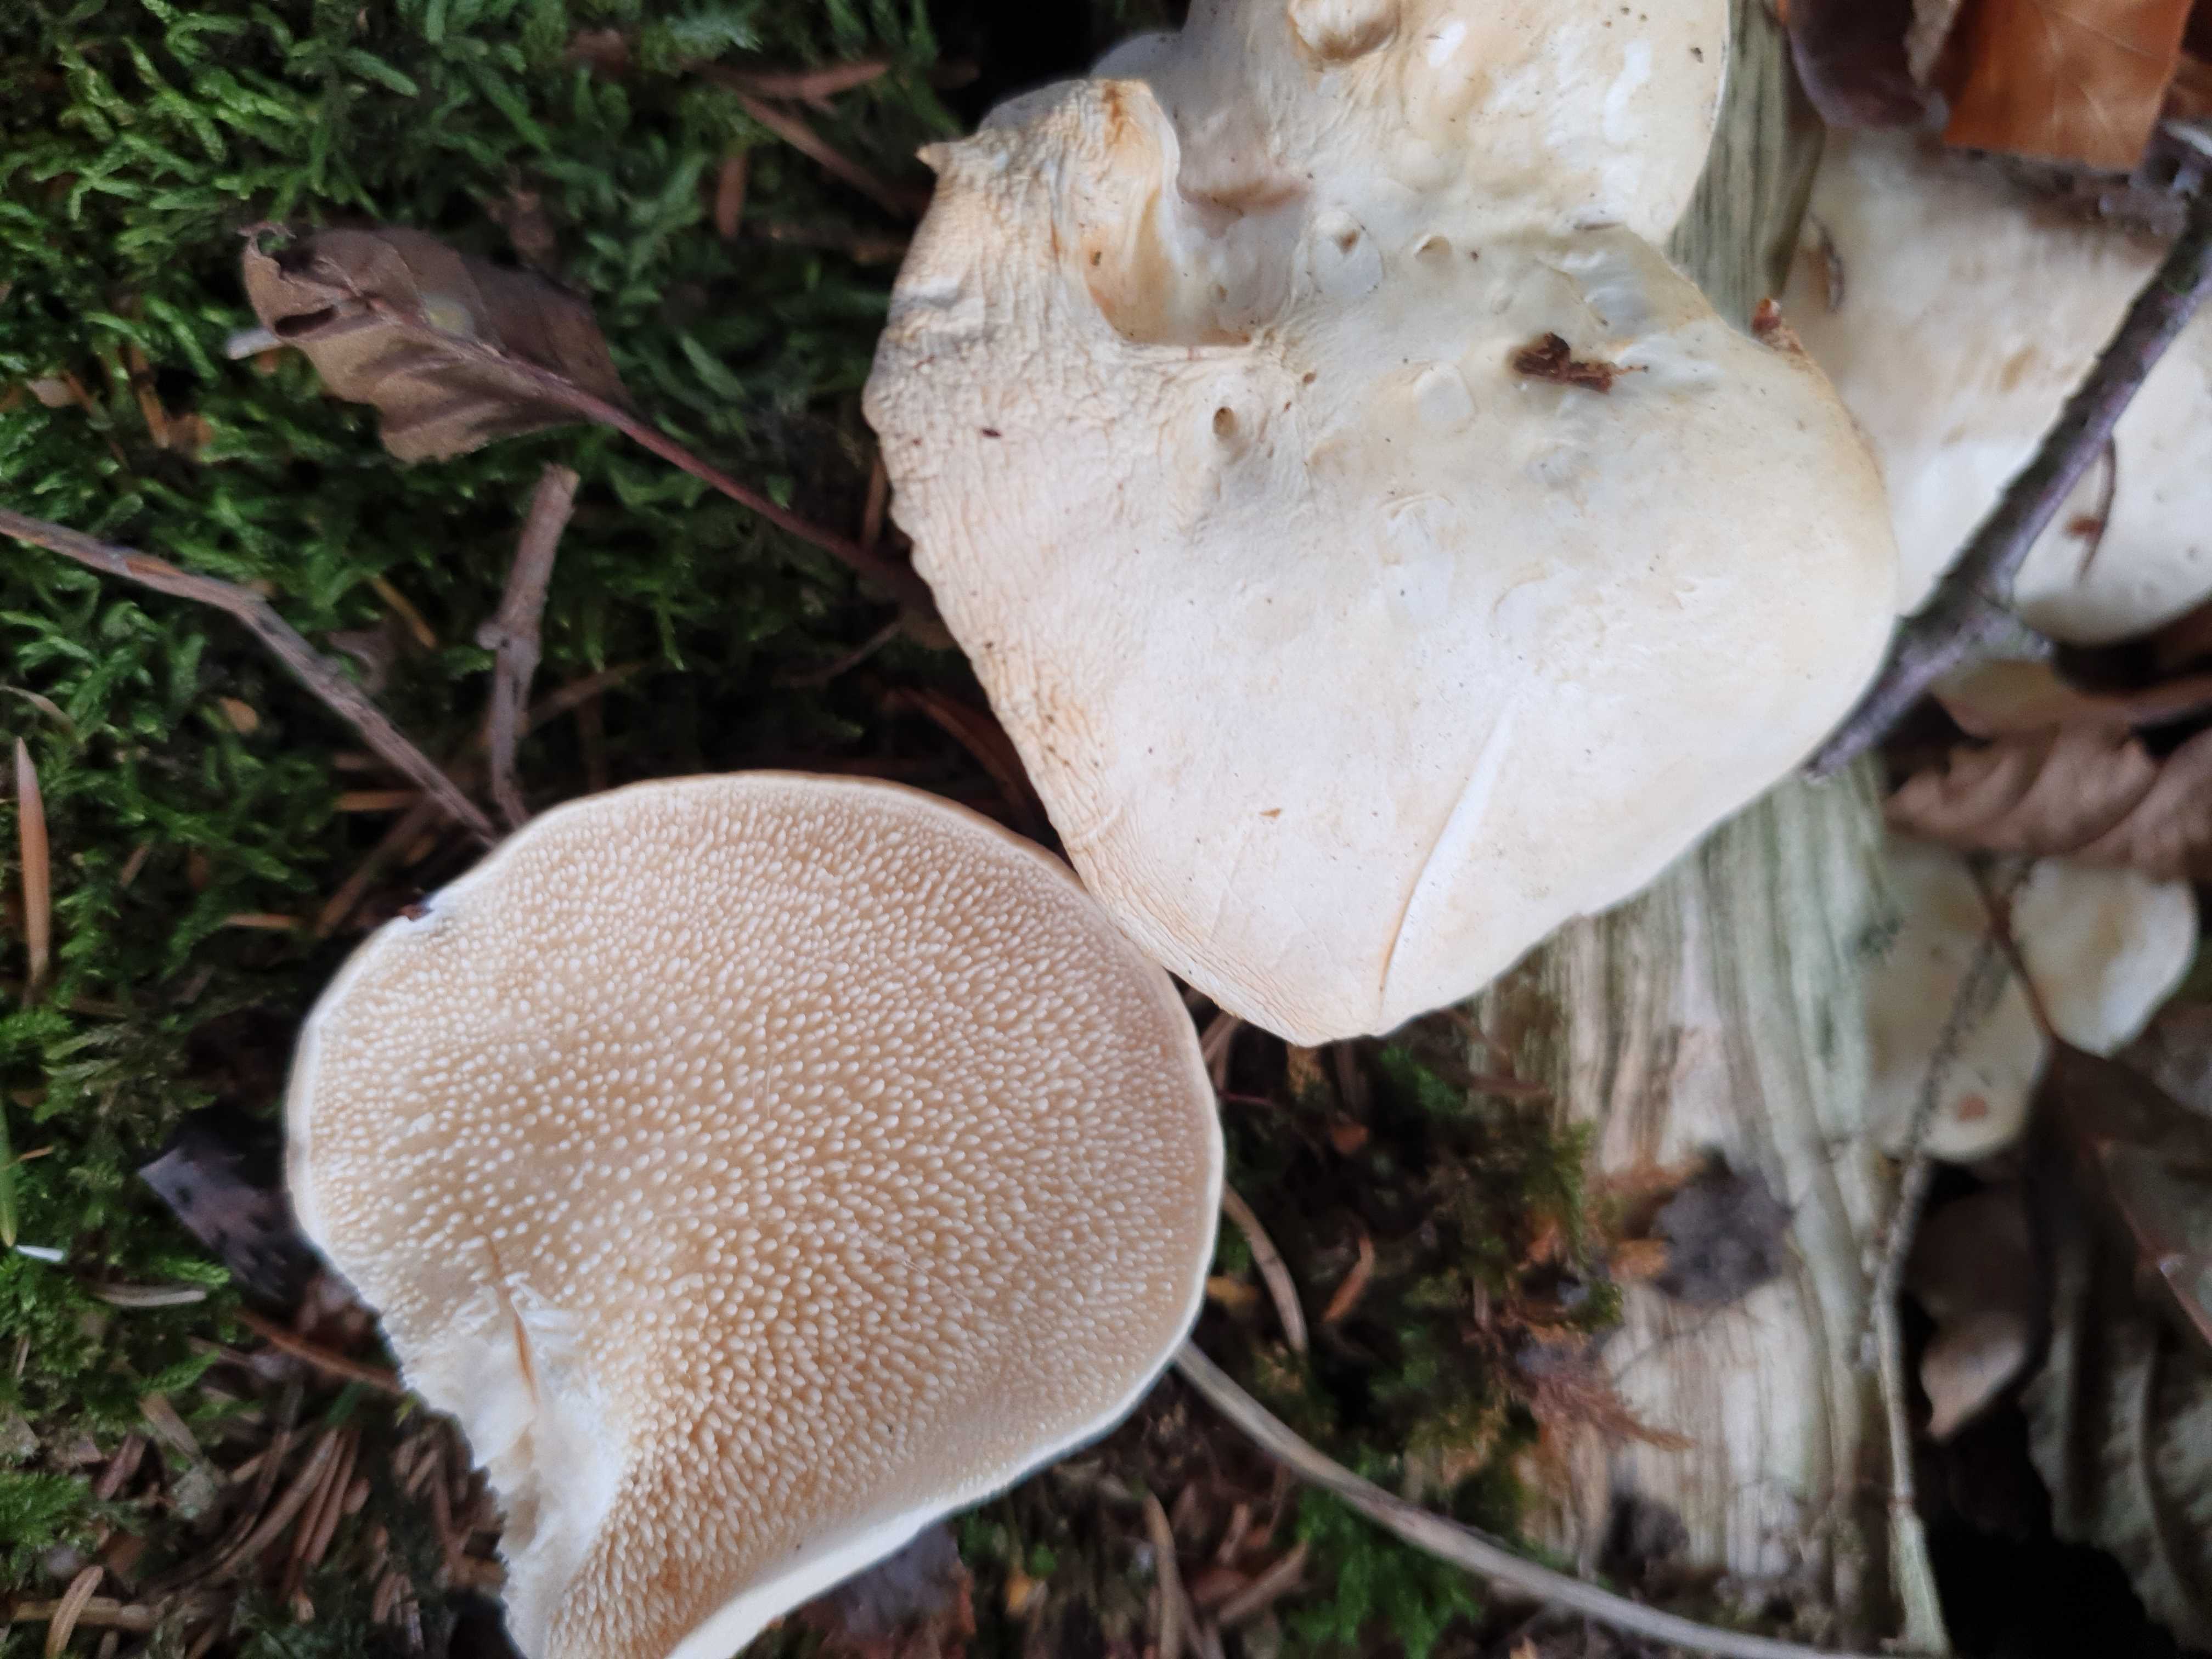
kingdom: Fungi
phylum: Basidiomycota
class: Agaricomycetes
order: Cantharellales
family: Hydnaceae
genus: Hydnum
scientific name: Hydnum
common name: pigsvamp
